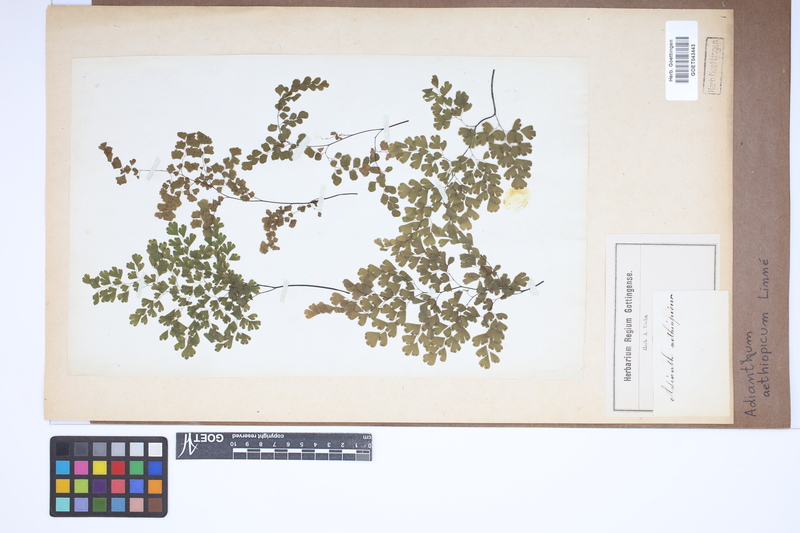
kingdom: Plantae
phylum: Tracheophyta
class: Polypodiopsida
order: Polypodiales
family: Pteridaceae
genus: Adiantum
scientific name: Adiantum aethiopicum
